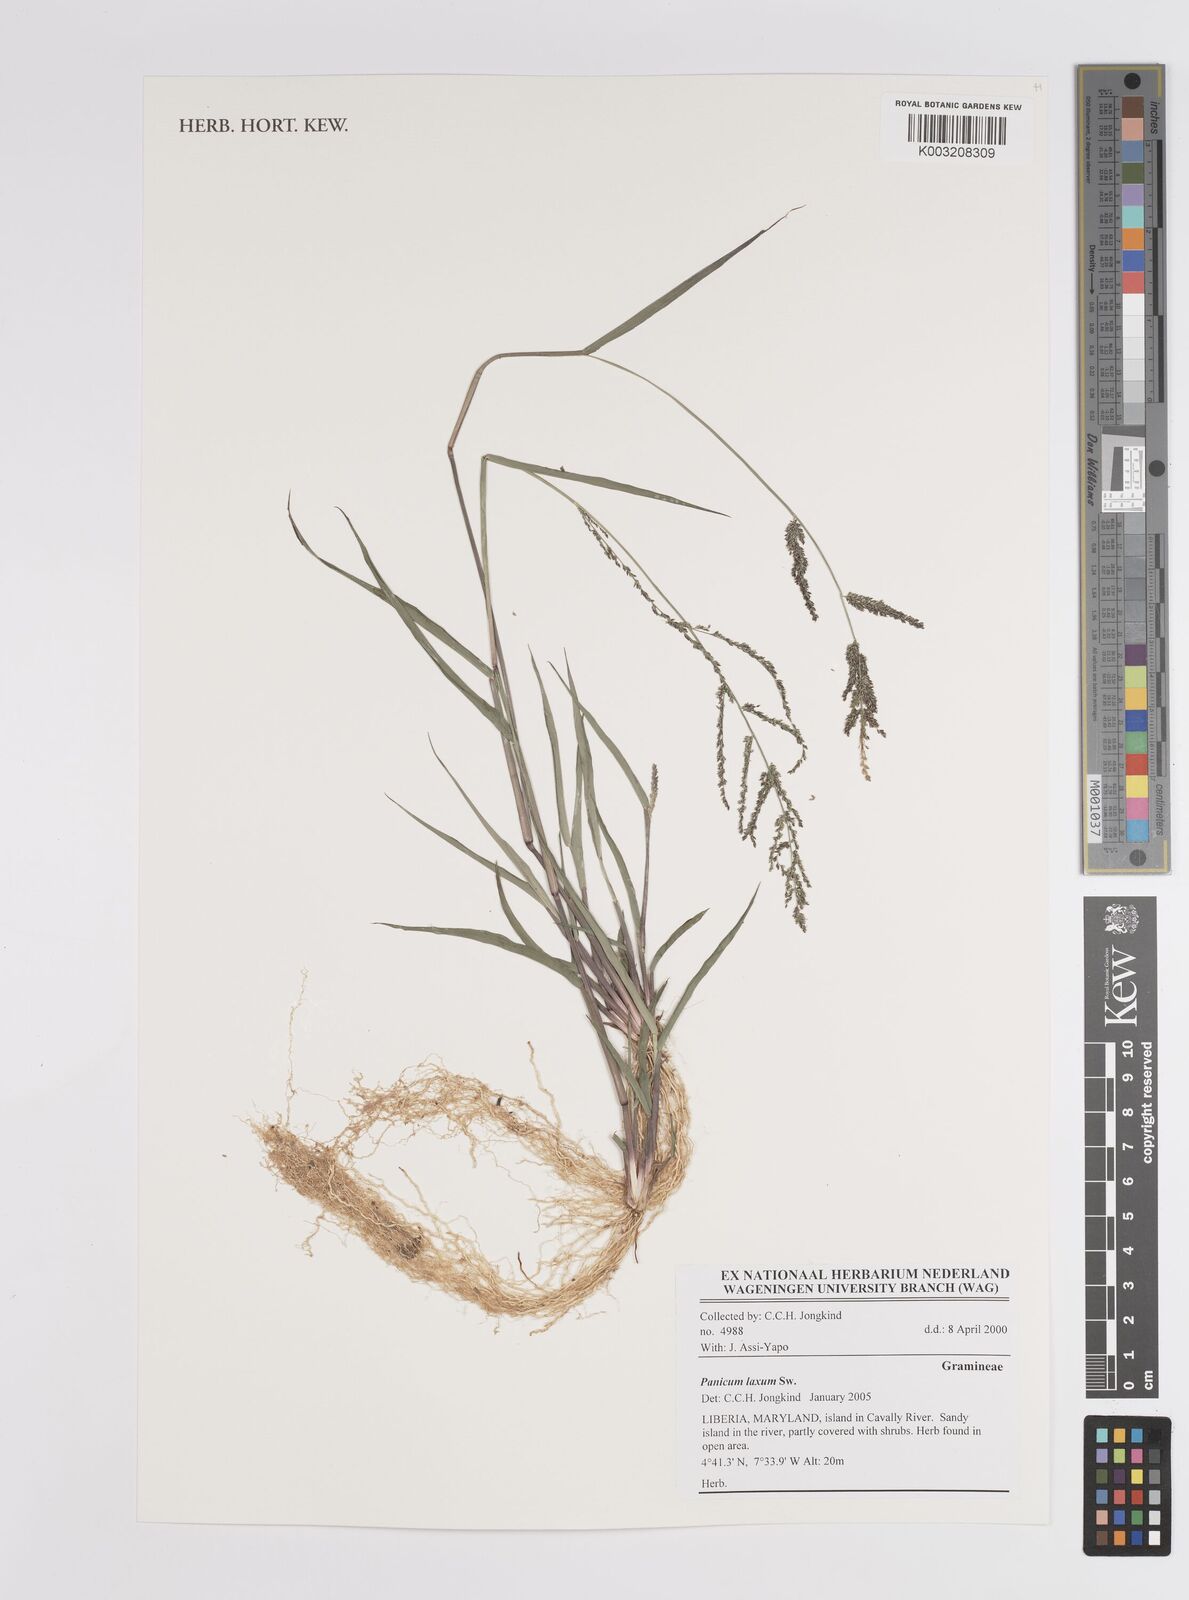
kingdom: Plantae
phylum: Tracheophyta
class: Liliopsida
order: Poales
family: Poaceae
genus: Steinchisma
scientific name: Steinchisma laxum
